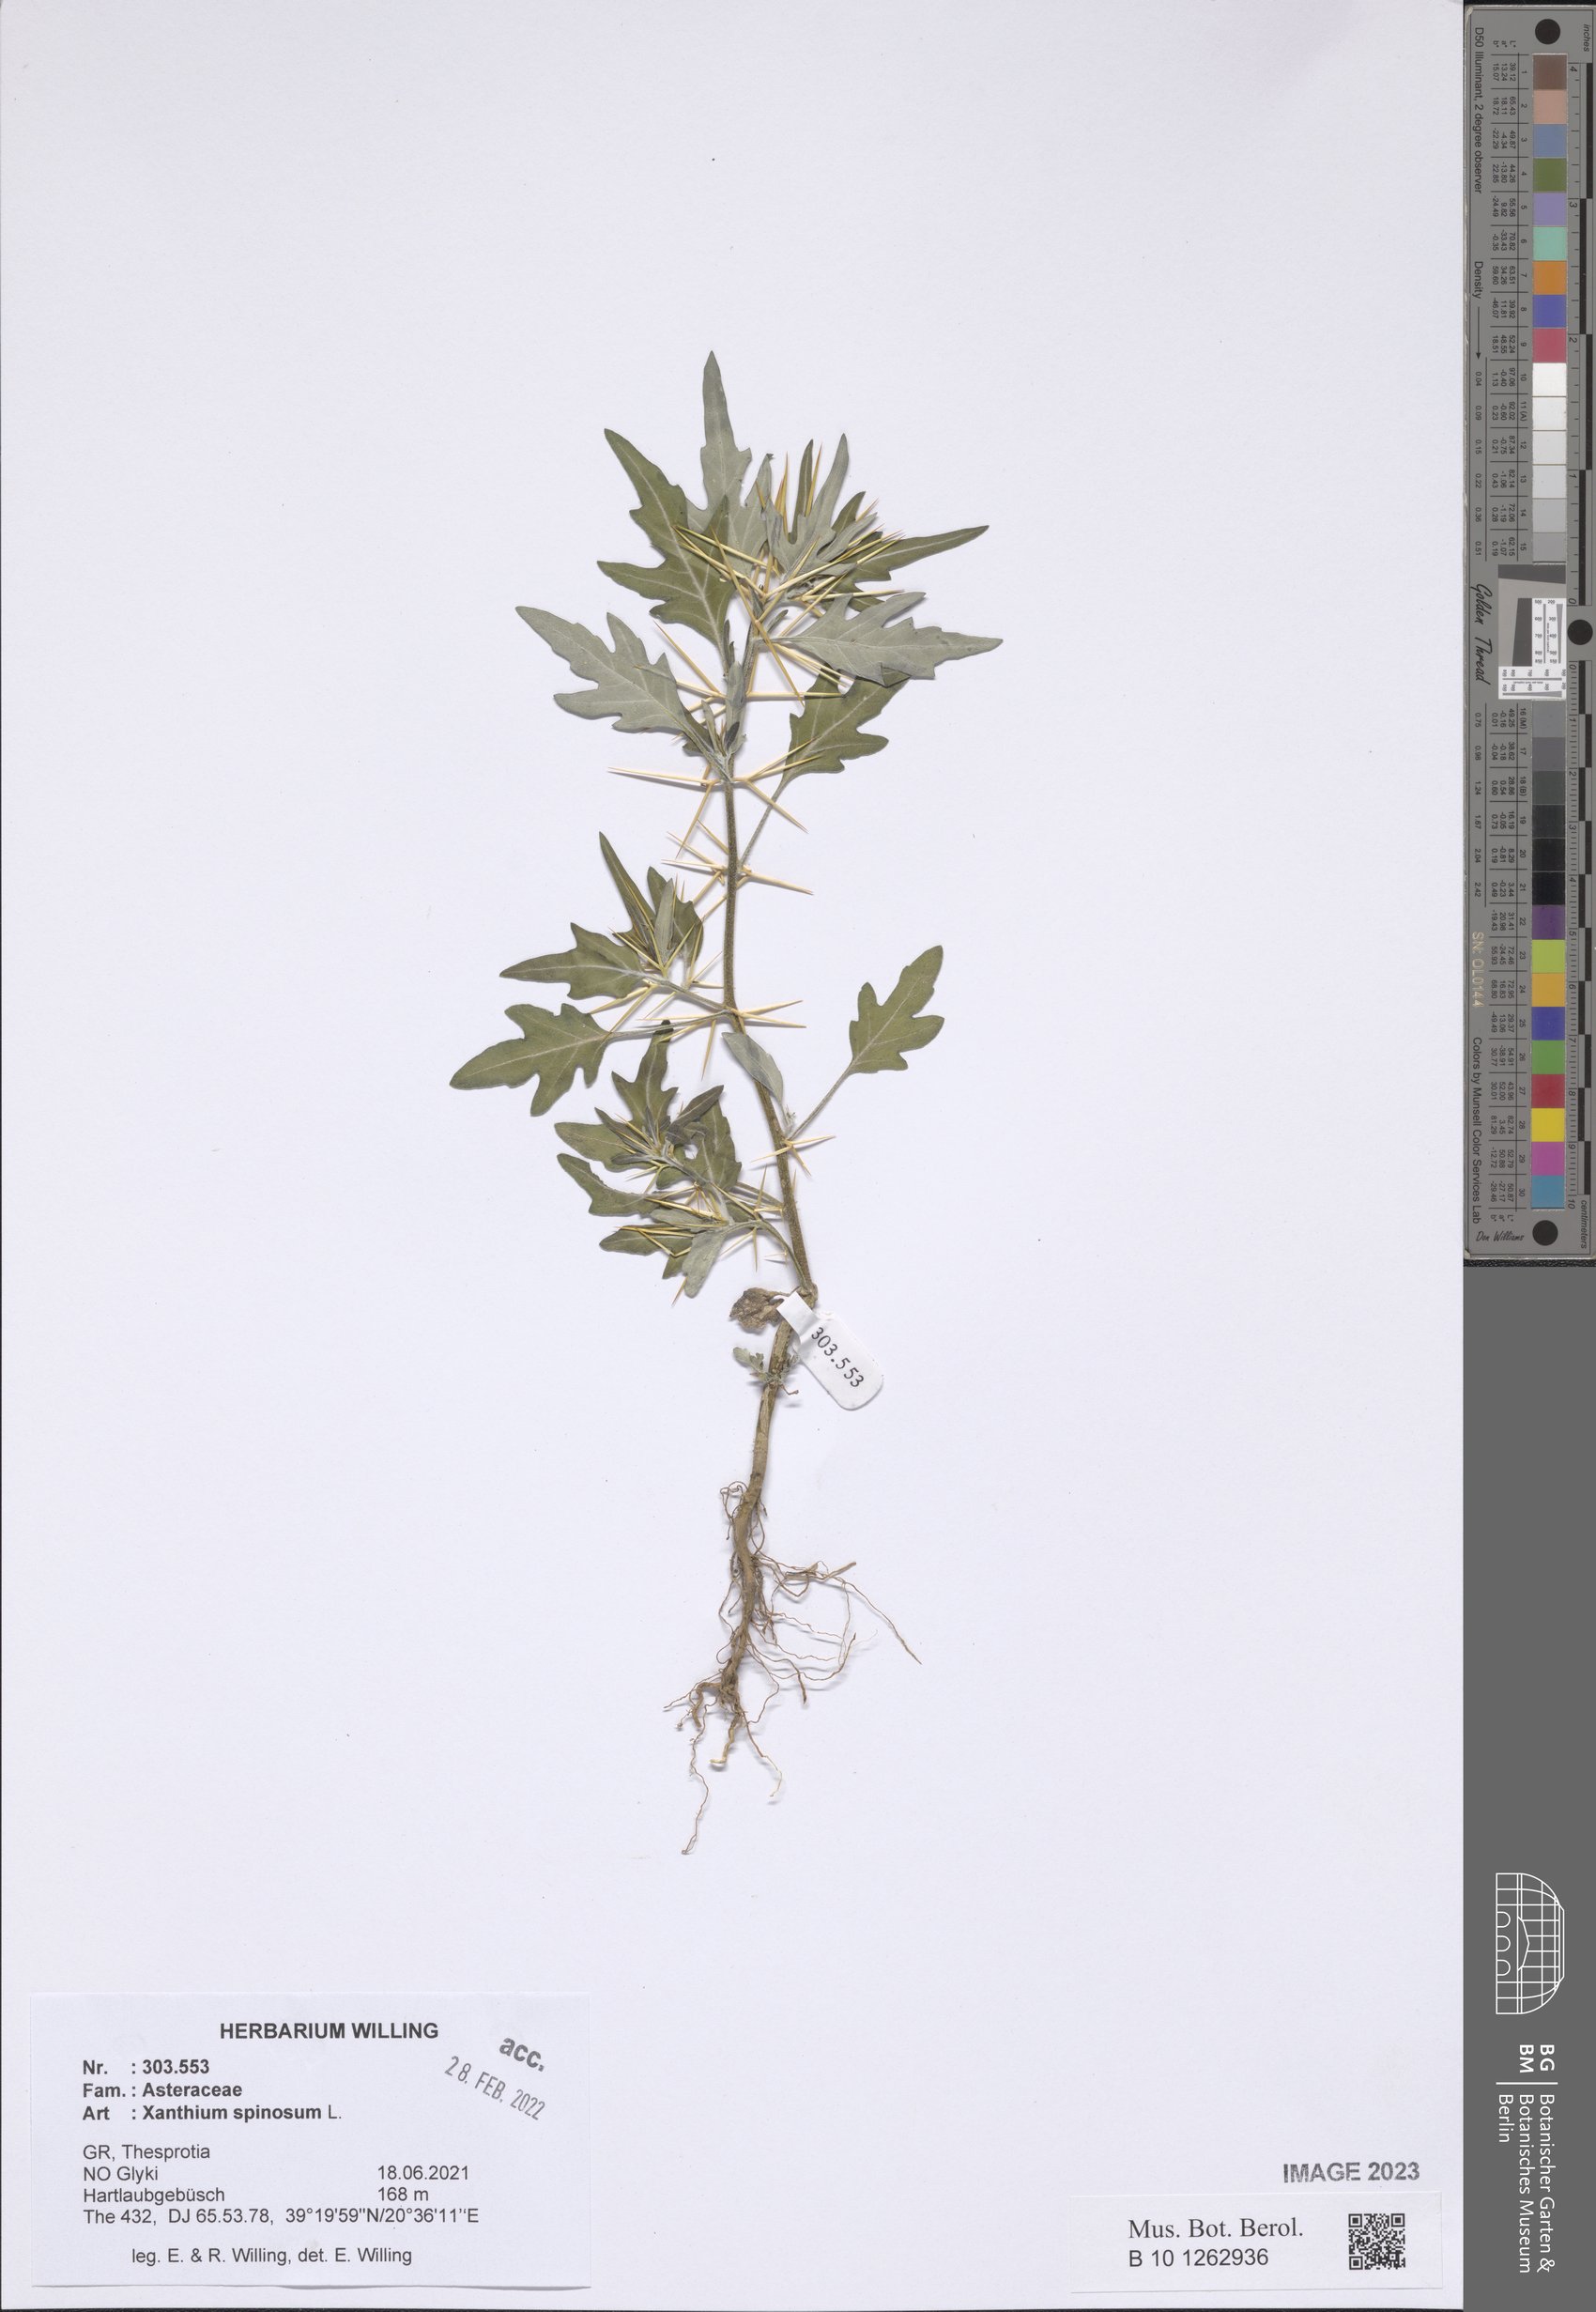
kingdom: Plantae
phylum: Tracheophyta
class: Magnoliopsida
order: Asterales
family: Asteraceae
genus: Xanthium
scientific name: Xanthium spinosum
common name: Spiny cocklebur
